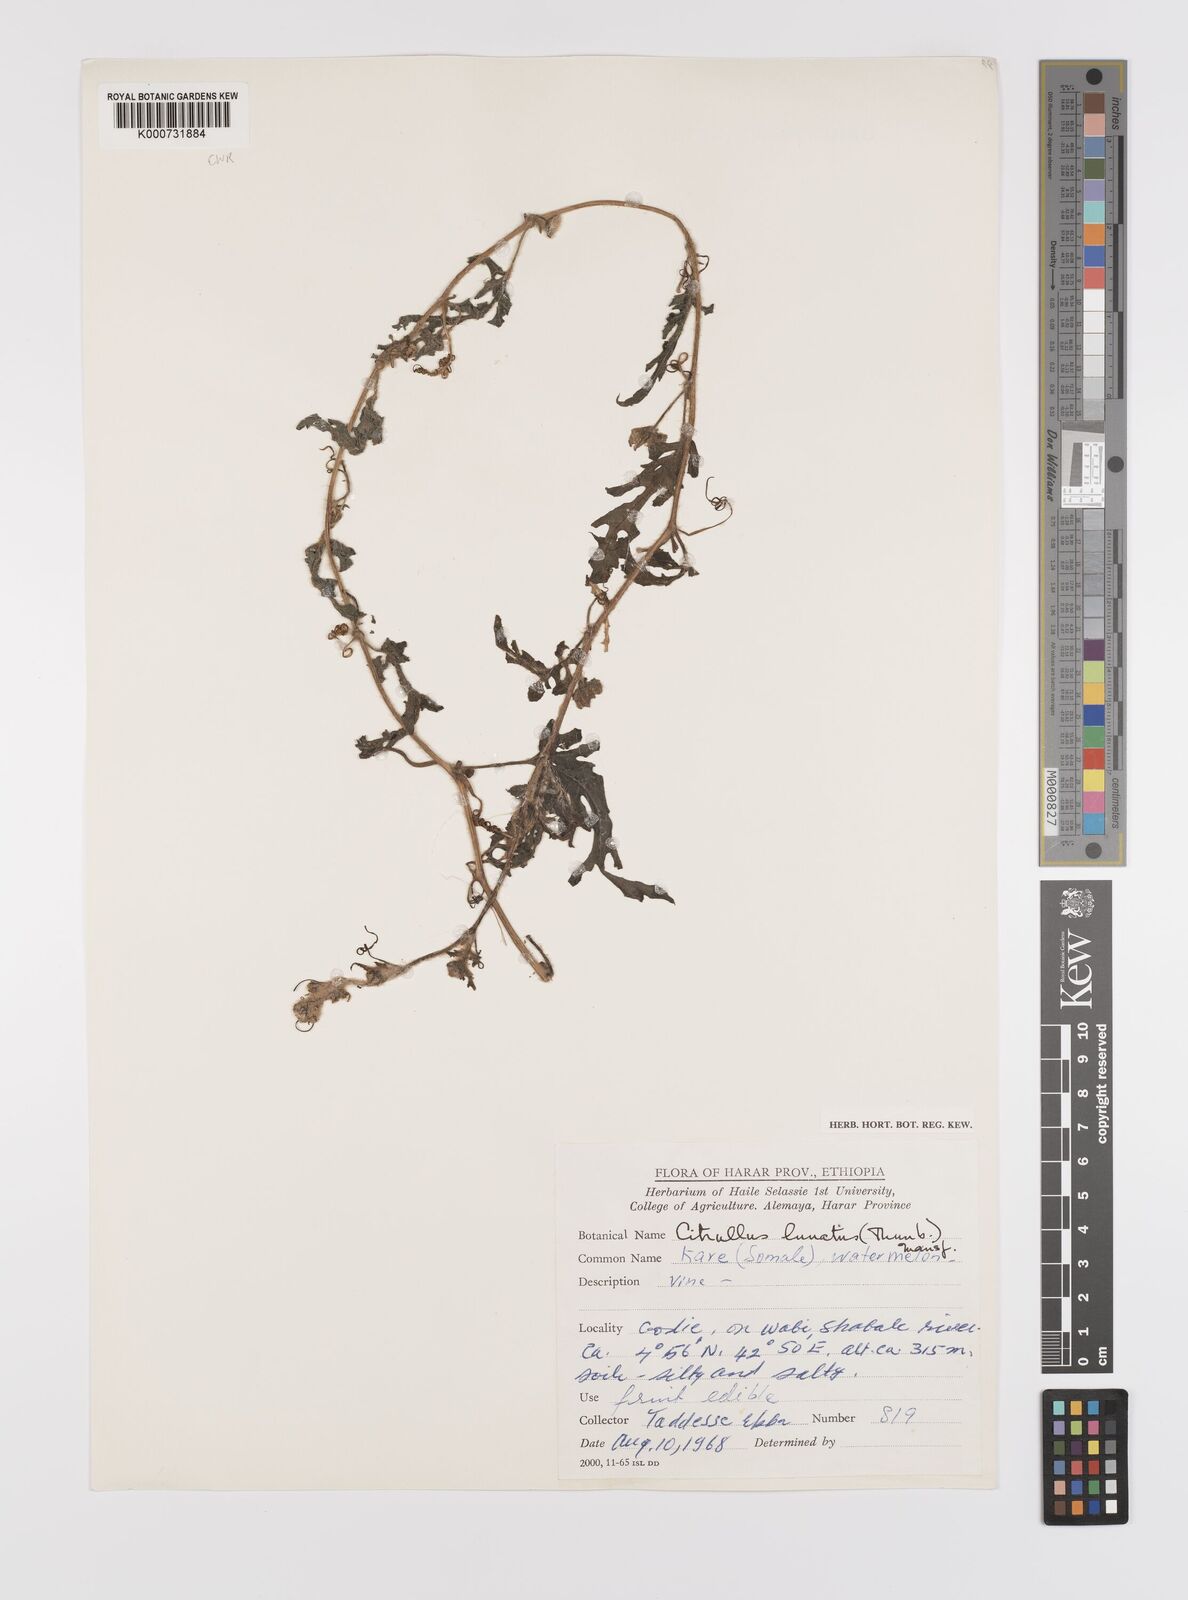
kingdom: Plantae
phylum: Tracheophyta
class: Magnoliopsida
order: Cucurbitales
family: Cucurbitaceae
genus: Citrullus
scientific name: Citrullus lanatus
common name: Watermelon
